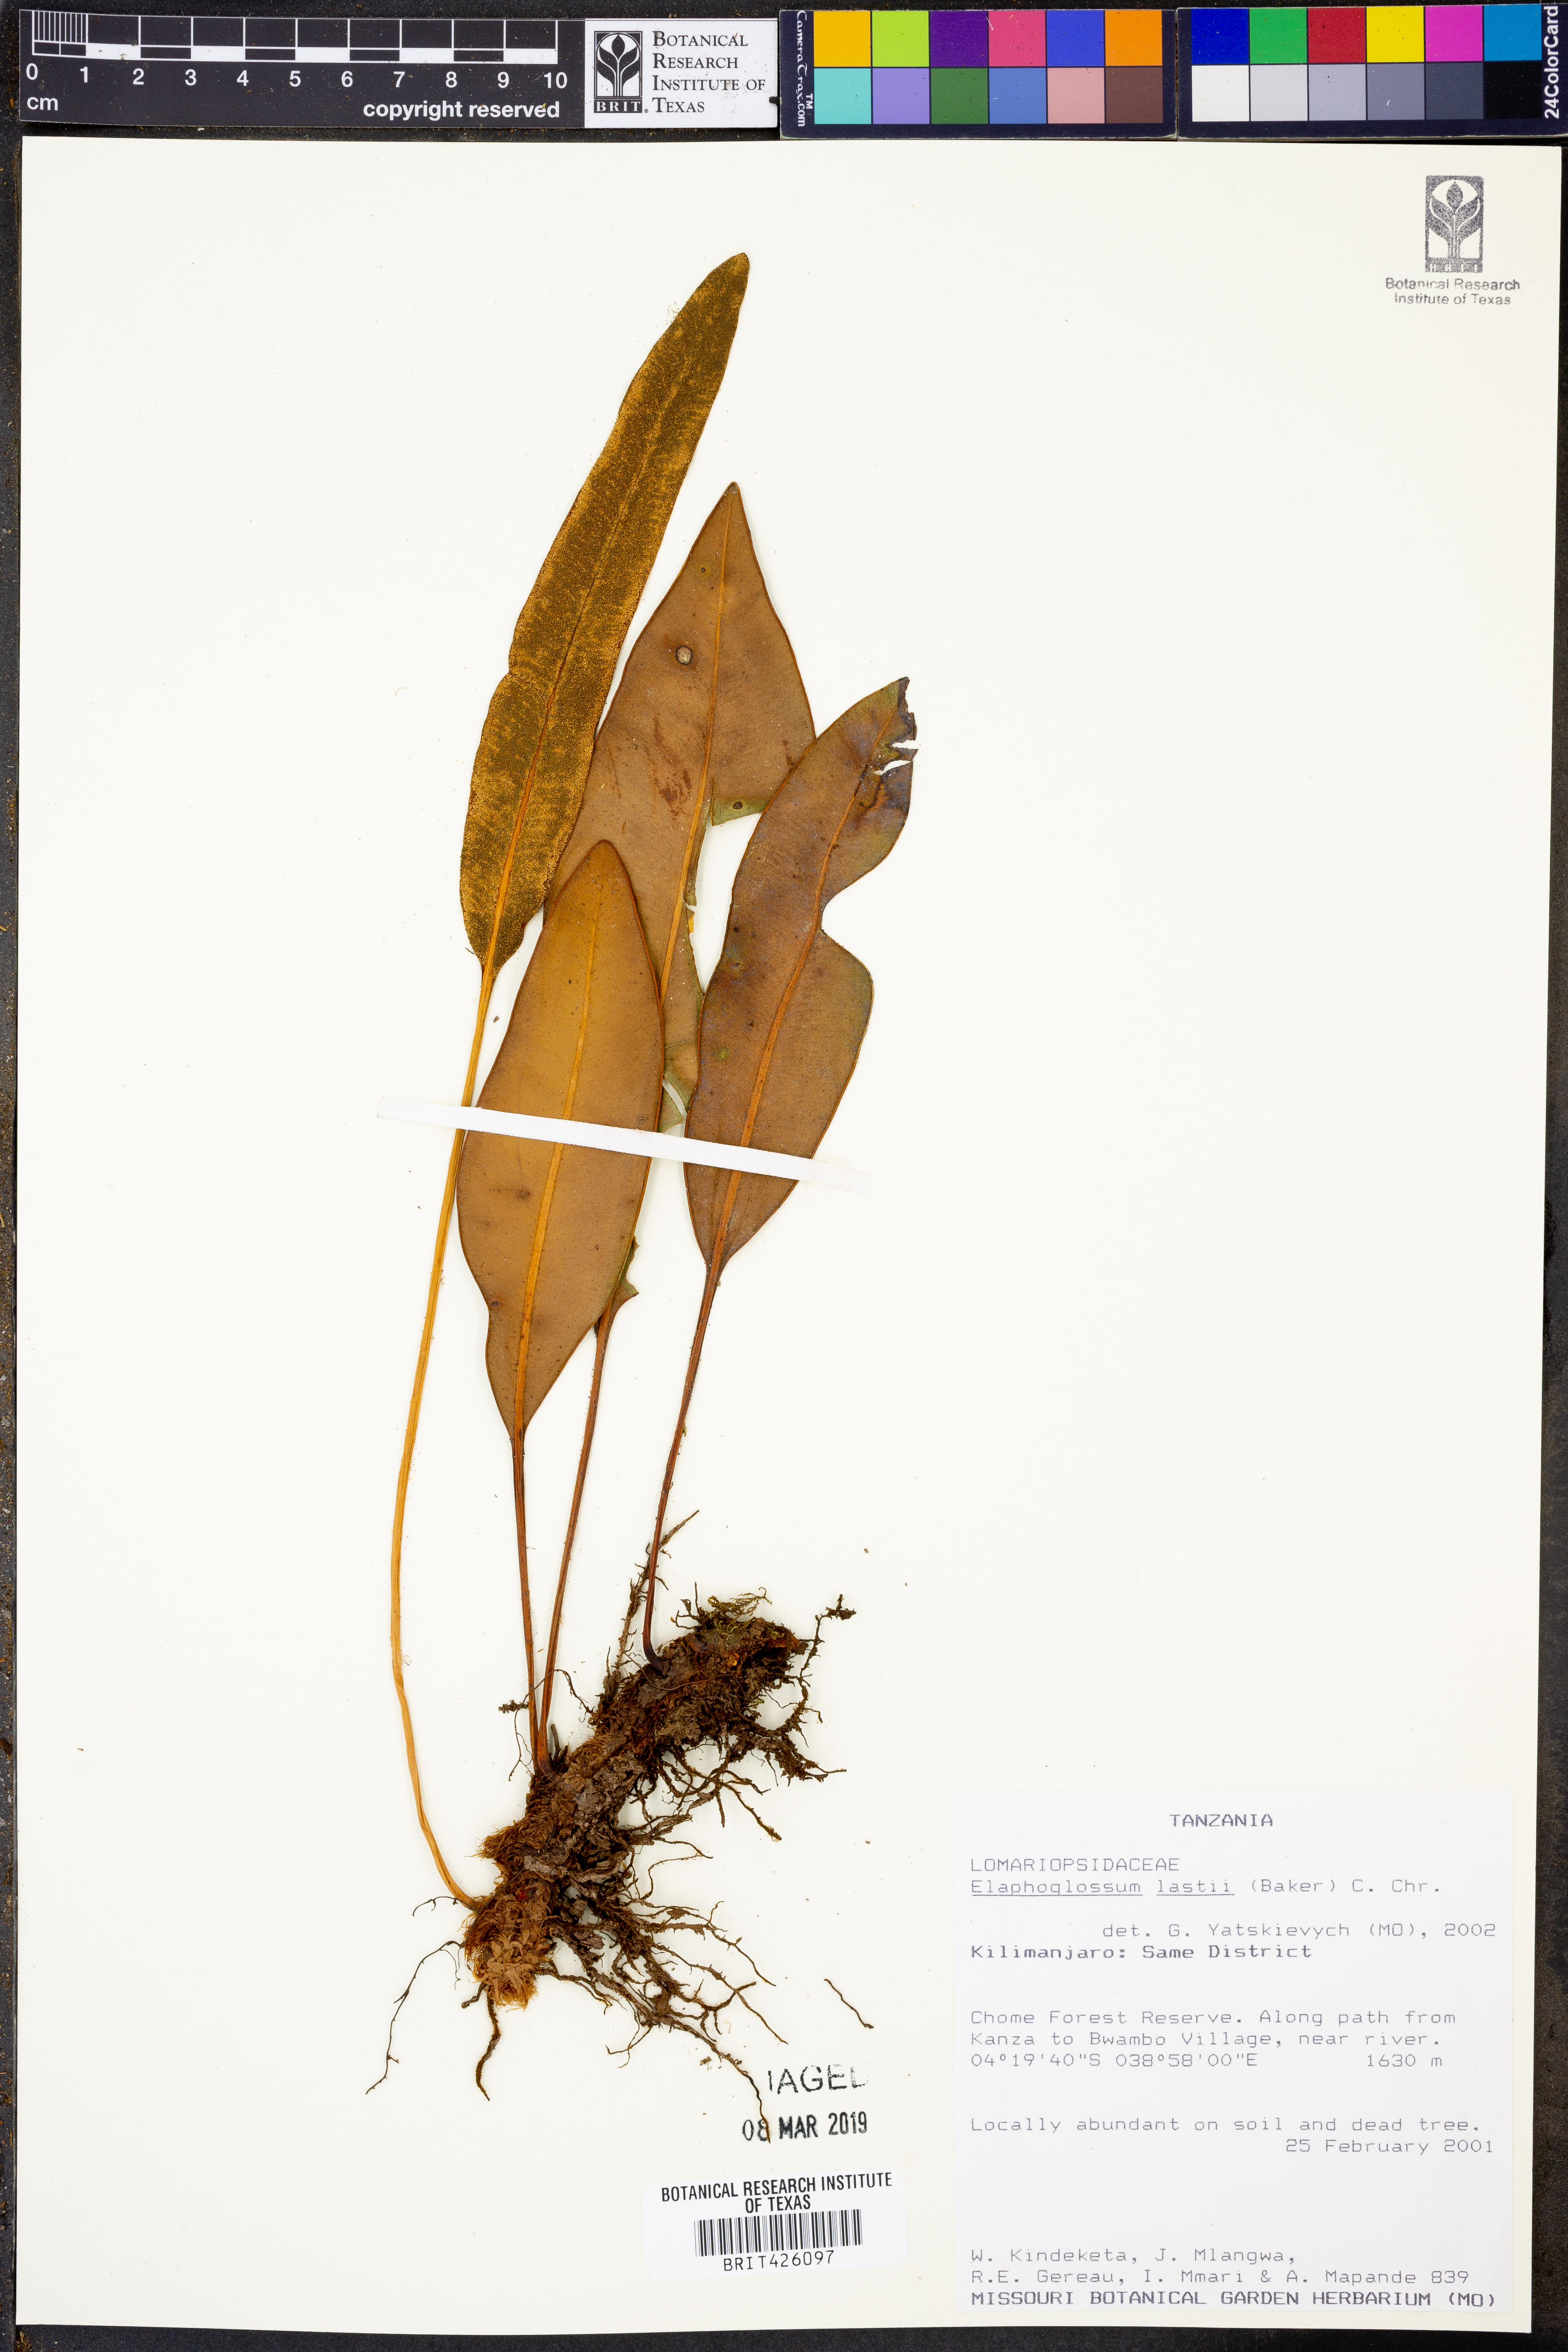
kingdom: Plantae
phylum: Tracheophyta
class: Polypodiopsida
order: Polypodiales
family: Dryopteridaceae
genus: Elaphoglossum
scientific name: Elaphoglossum lastii
